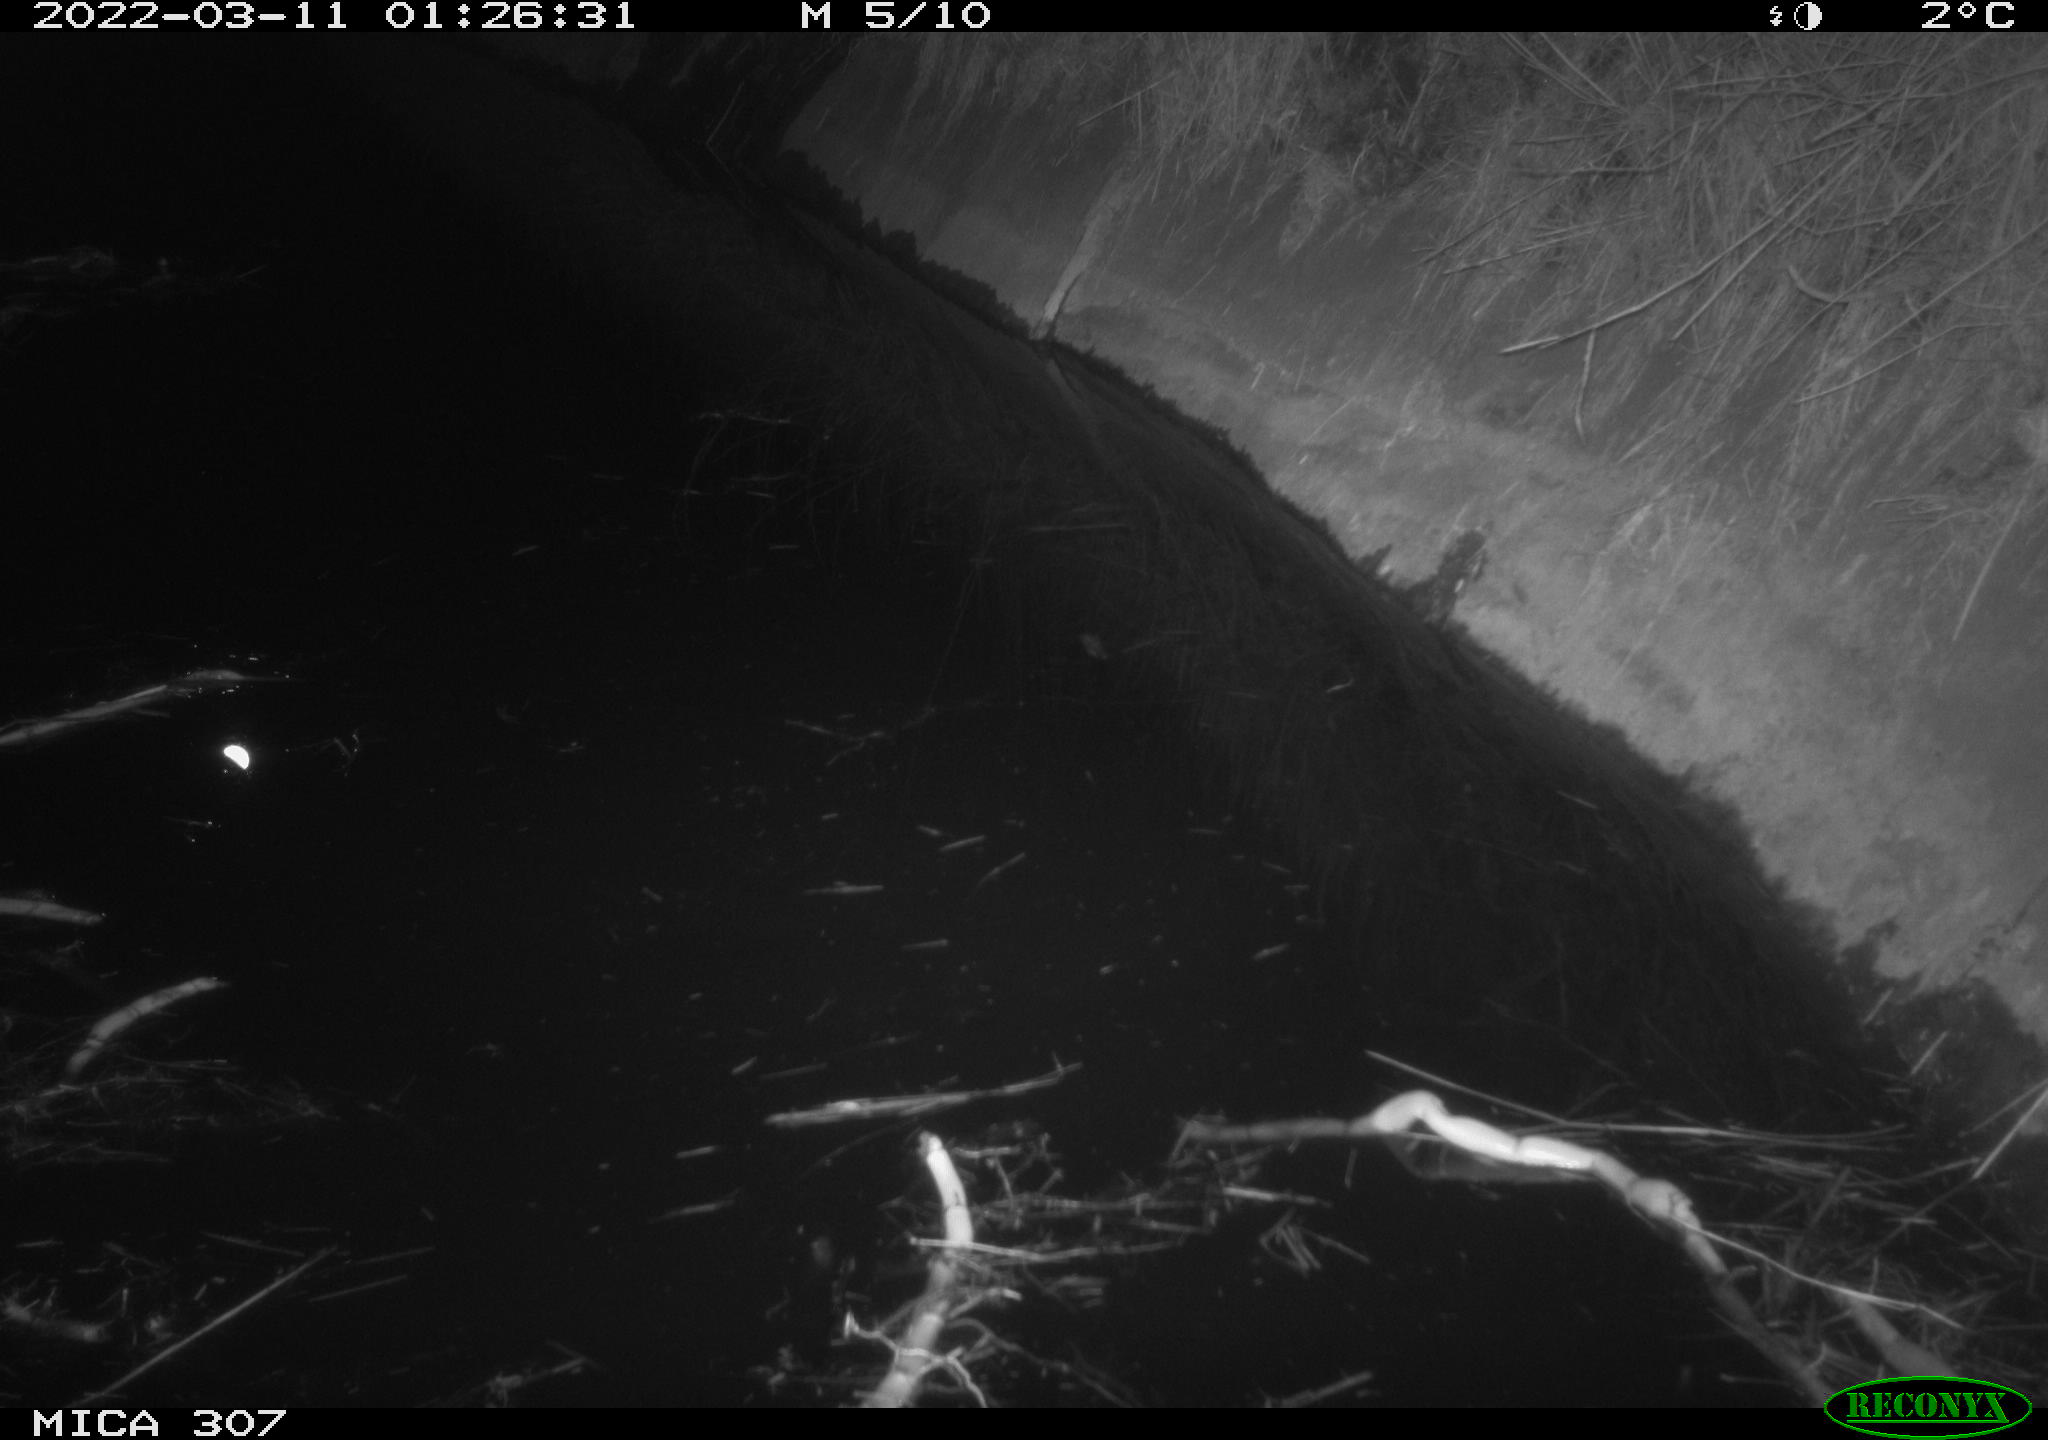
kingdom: Animalia
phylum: Chordata
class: Mammalia
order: Rodentia
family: Muridae
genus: Rattus
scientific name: Rattus norvegicus
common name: Brown rat
